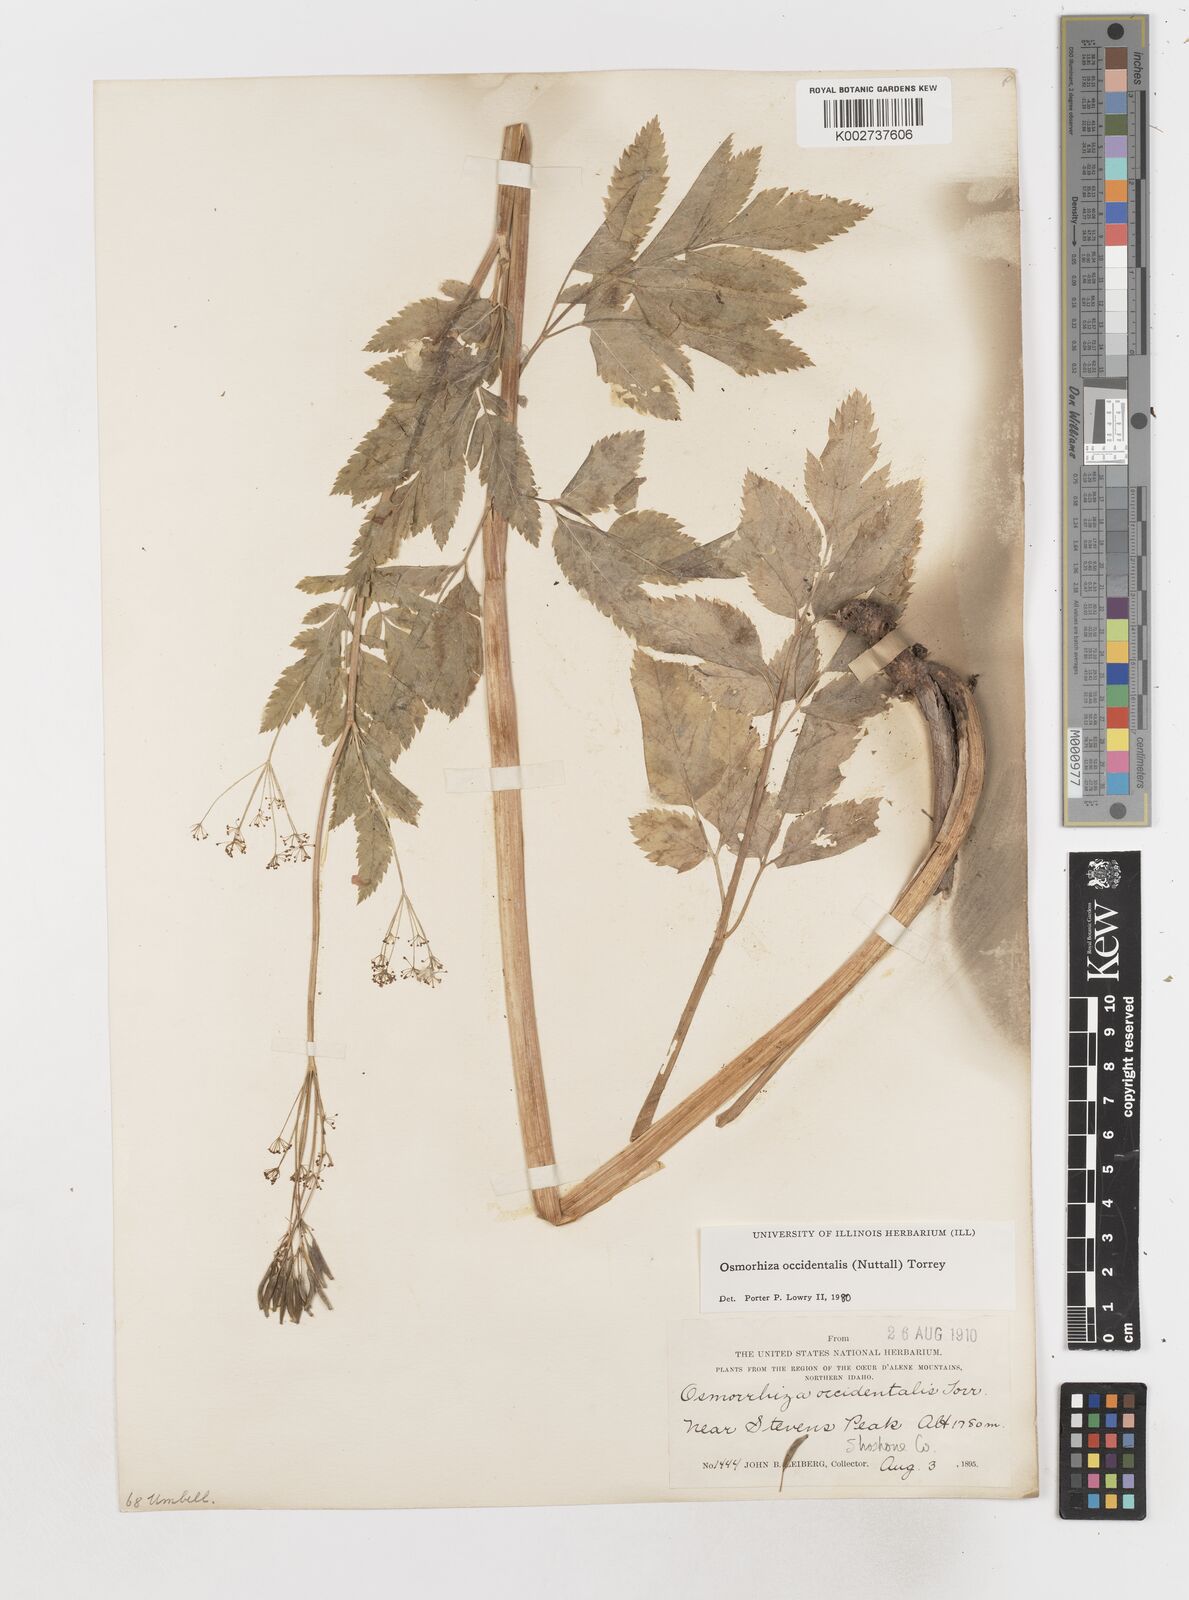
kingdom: Plantae
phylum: Tracheophyta
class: Magnoliopsida
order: Apiales
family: Apiaceae
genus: Osmorhiza
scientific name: Osmorhiza occidentalis
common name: Western sweet cicely
